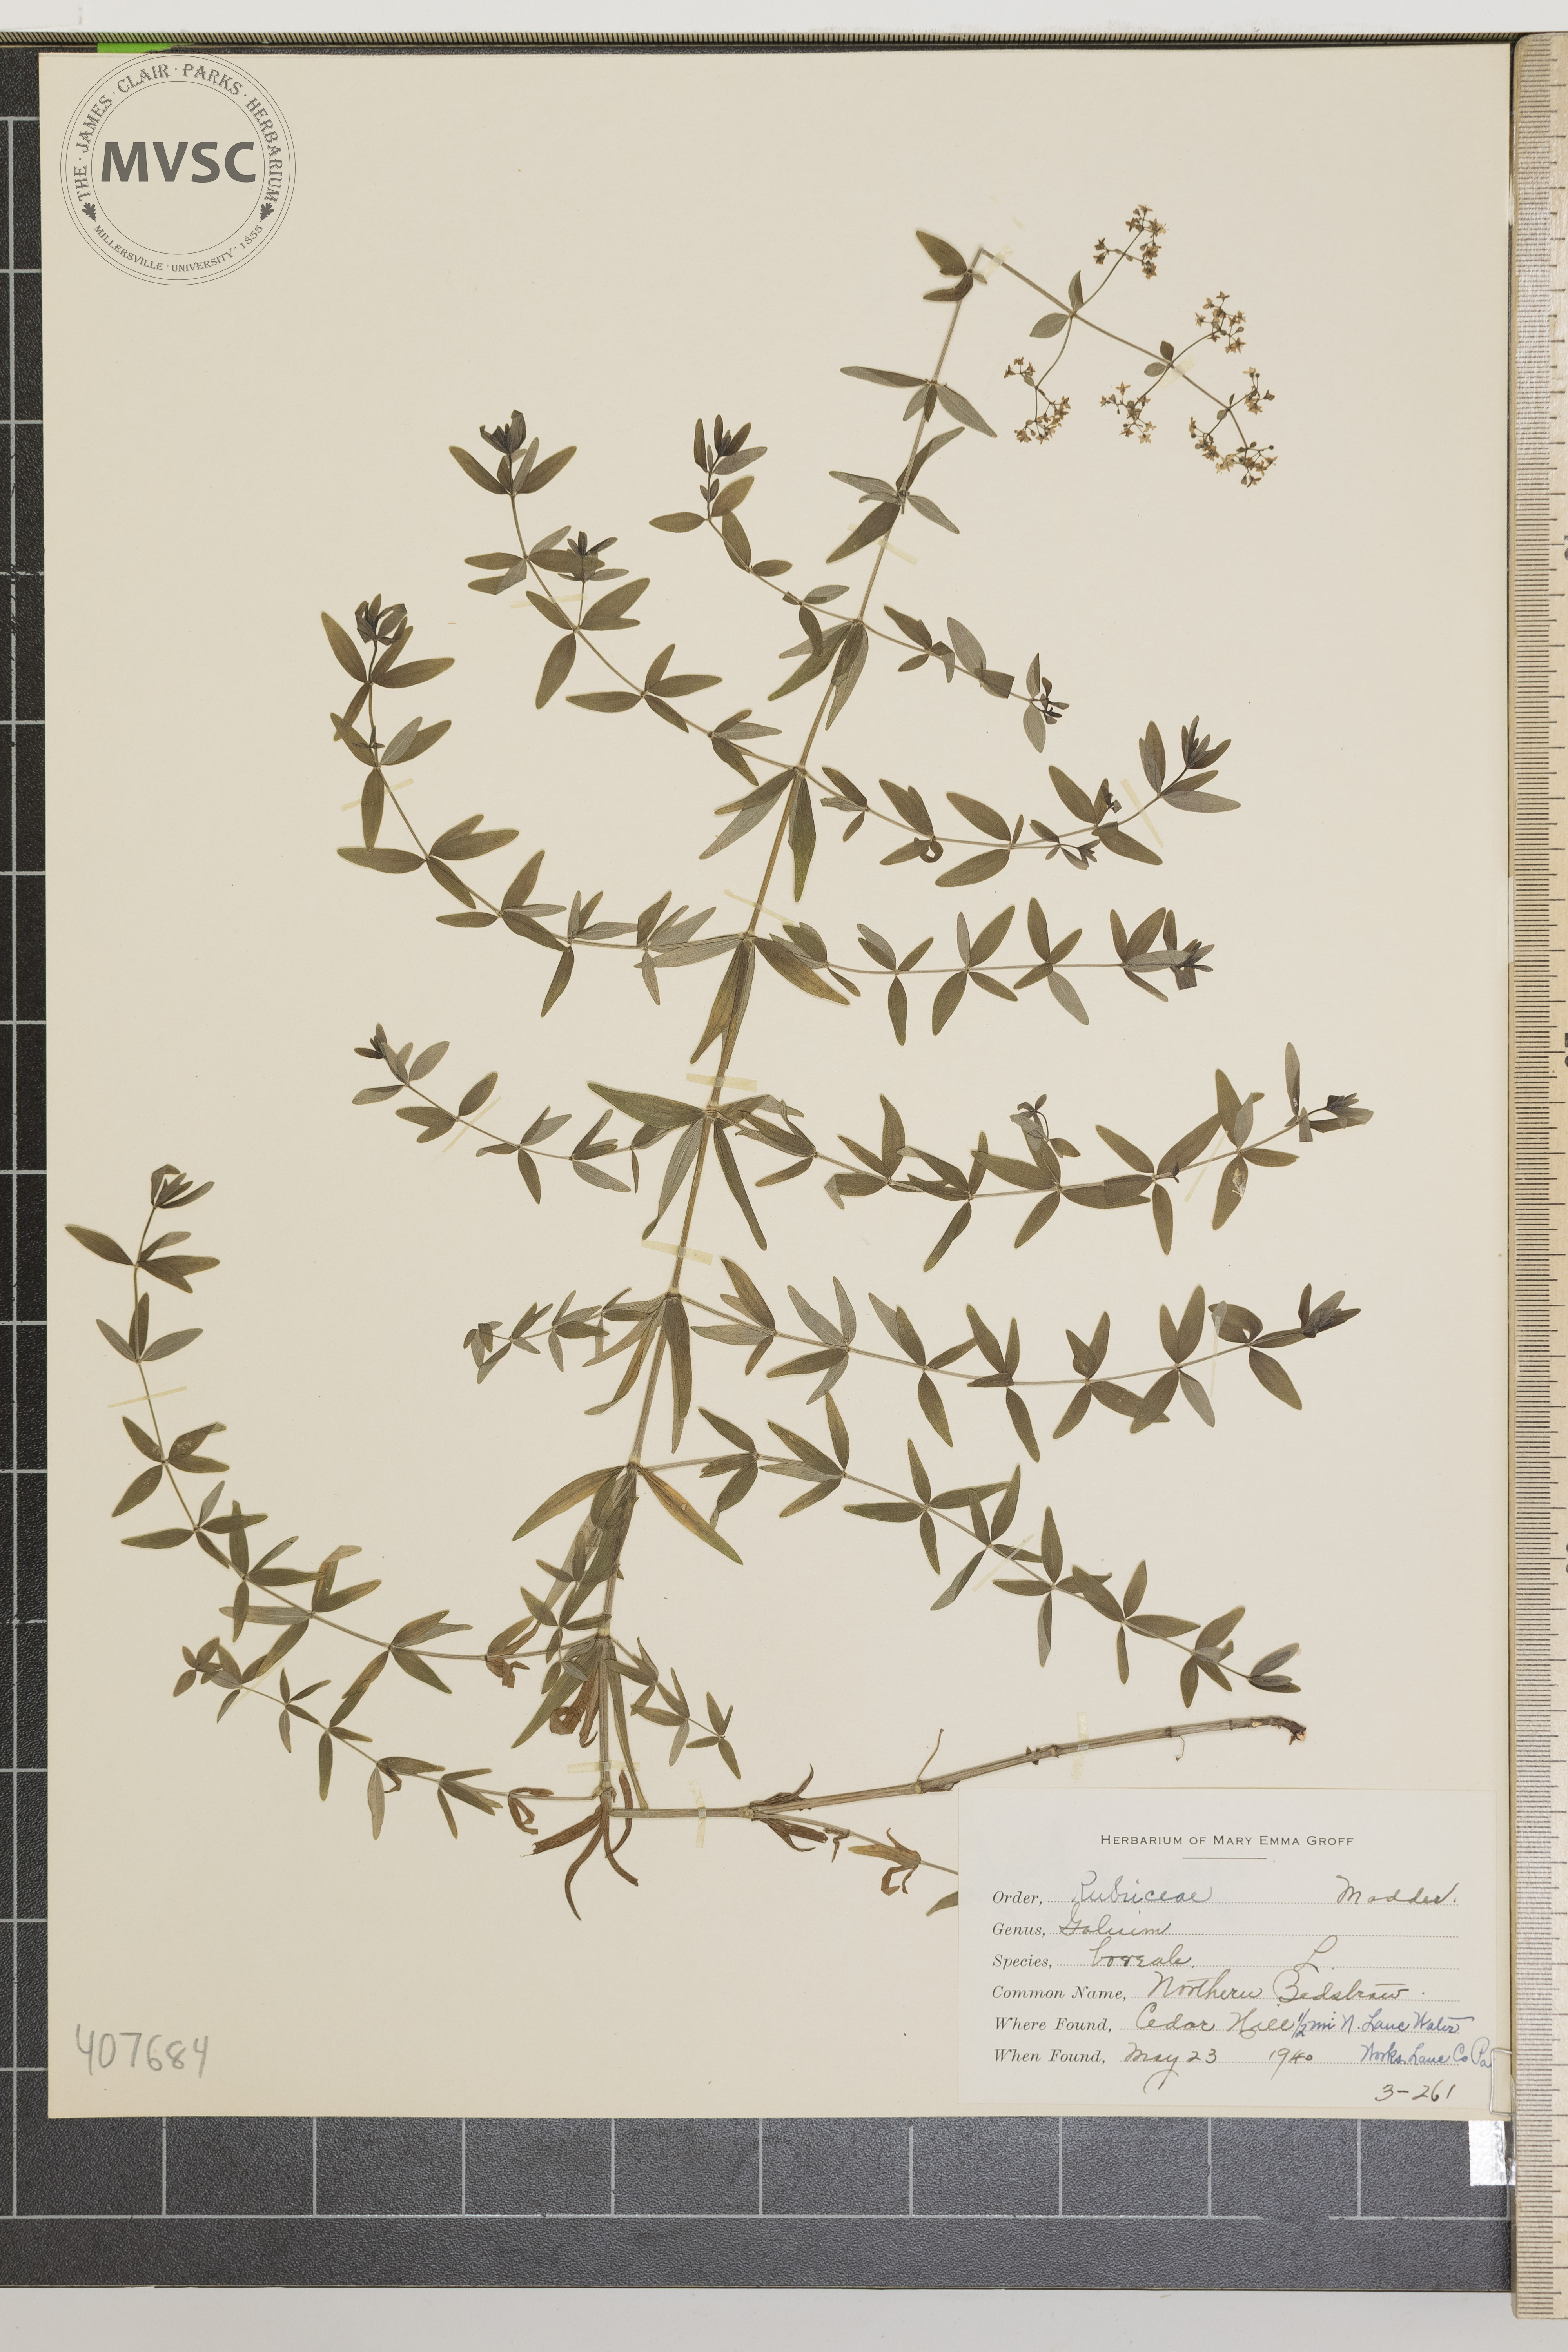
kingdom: Plantae
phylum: Tracheophyta
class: Magnoliopsida
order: Gentianales
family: Rubiaceae
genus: Galium
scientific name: Galium boreale
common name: Northern Bedstraw
